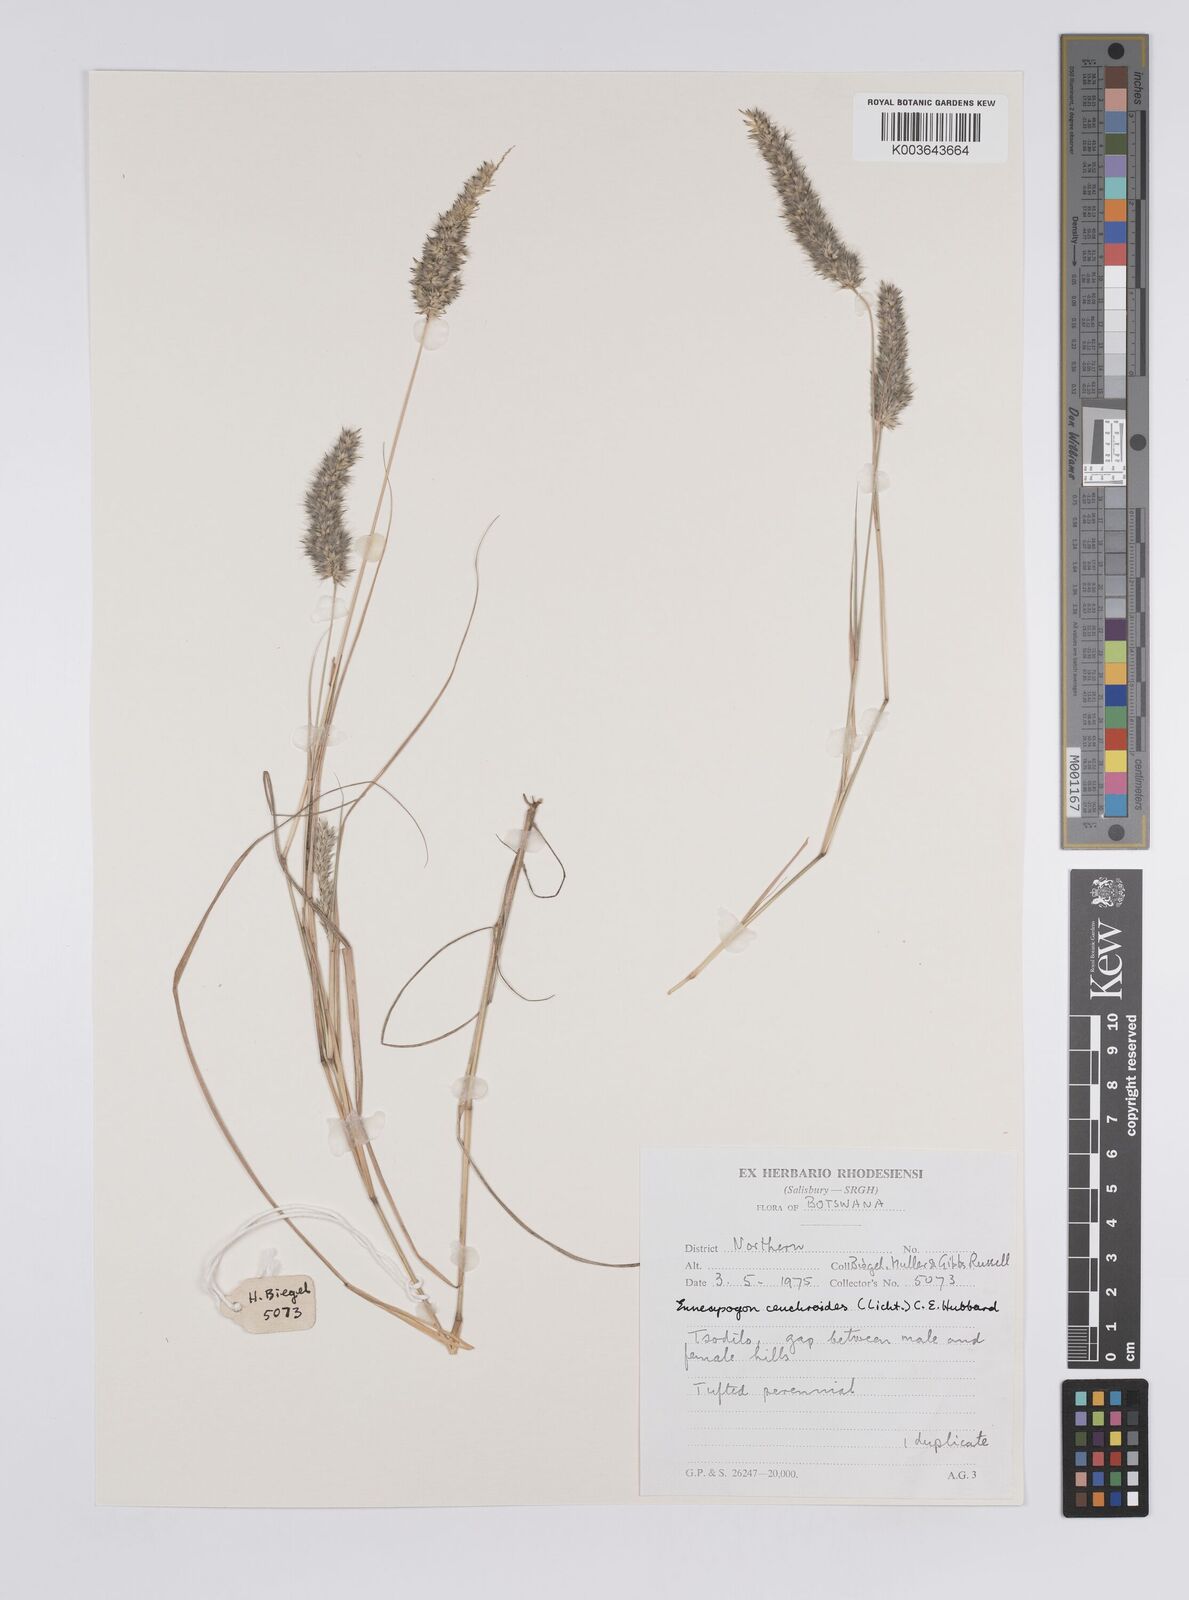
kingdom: Plantae
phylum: Tracheophyta
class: Liliopsida
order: Poales
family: Poaceae
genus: Enneapogon
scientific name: Enneapogon cenchroides
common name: Soft feather pappusgrass
